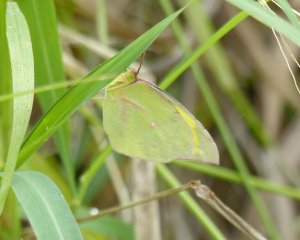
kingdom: Animalia
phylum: Arthropoda
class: Insecta
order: Lepidoptera
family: Pieridae
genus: Zerene
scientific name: Zerene cesonia
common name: Southern Dogface
